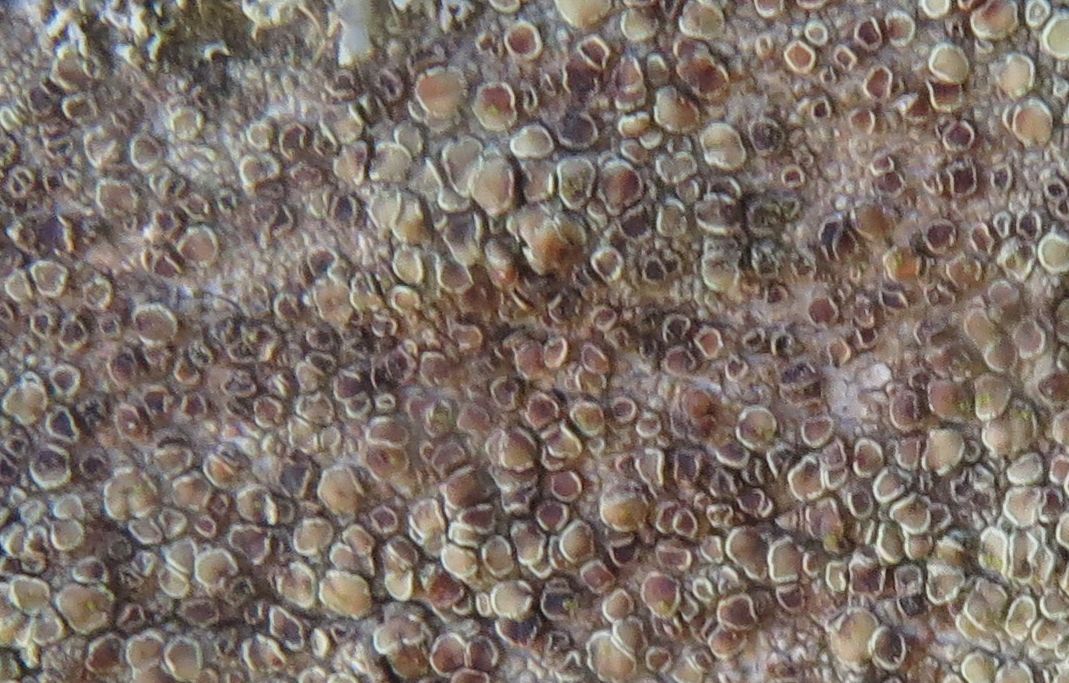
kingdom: Fungi
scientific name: Fungi
